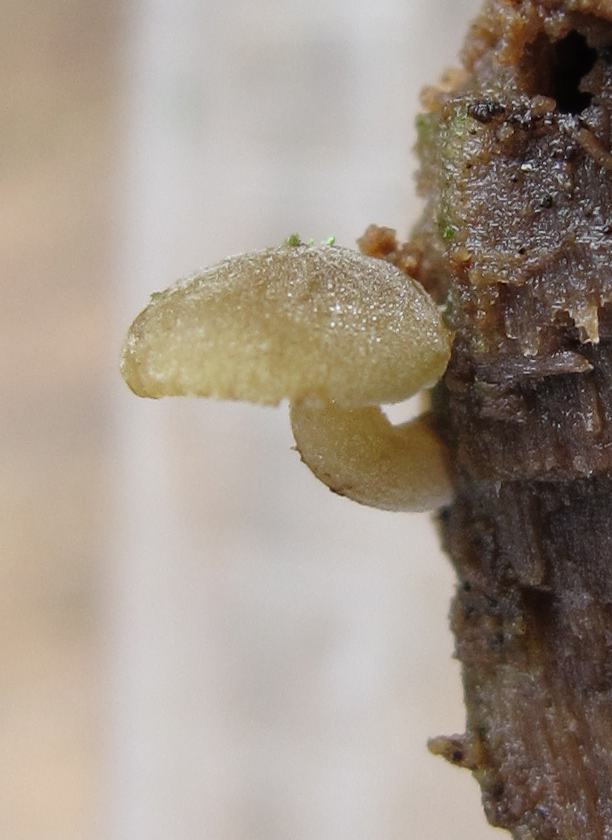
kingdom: Fungi
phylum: Basidiomycota
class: Agaricomycetes
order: Agaricales
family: Crepidotaceae
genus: Simocybe
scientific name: Simocybe haustellaris
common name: skæv skyggehat
